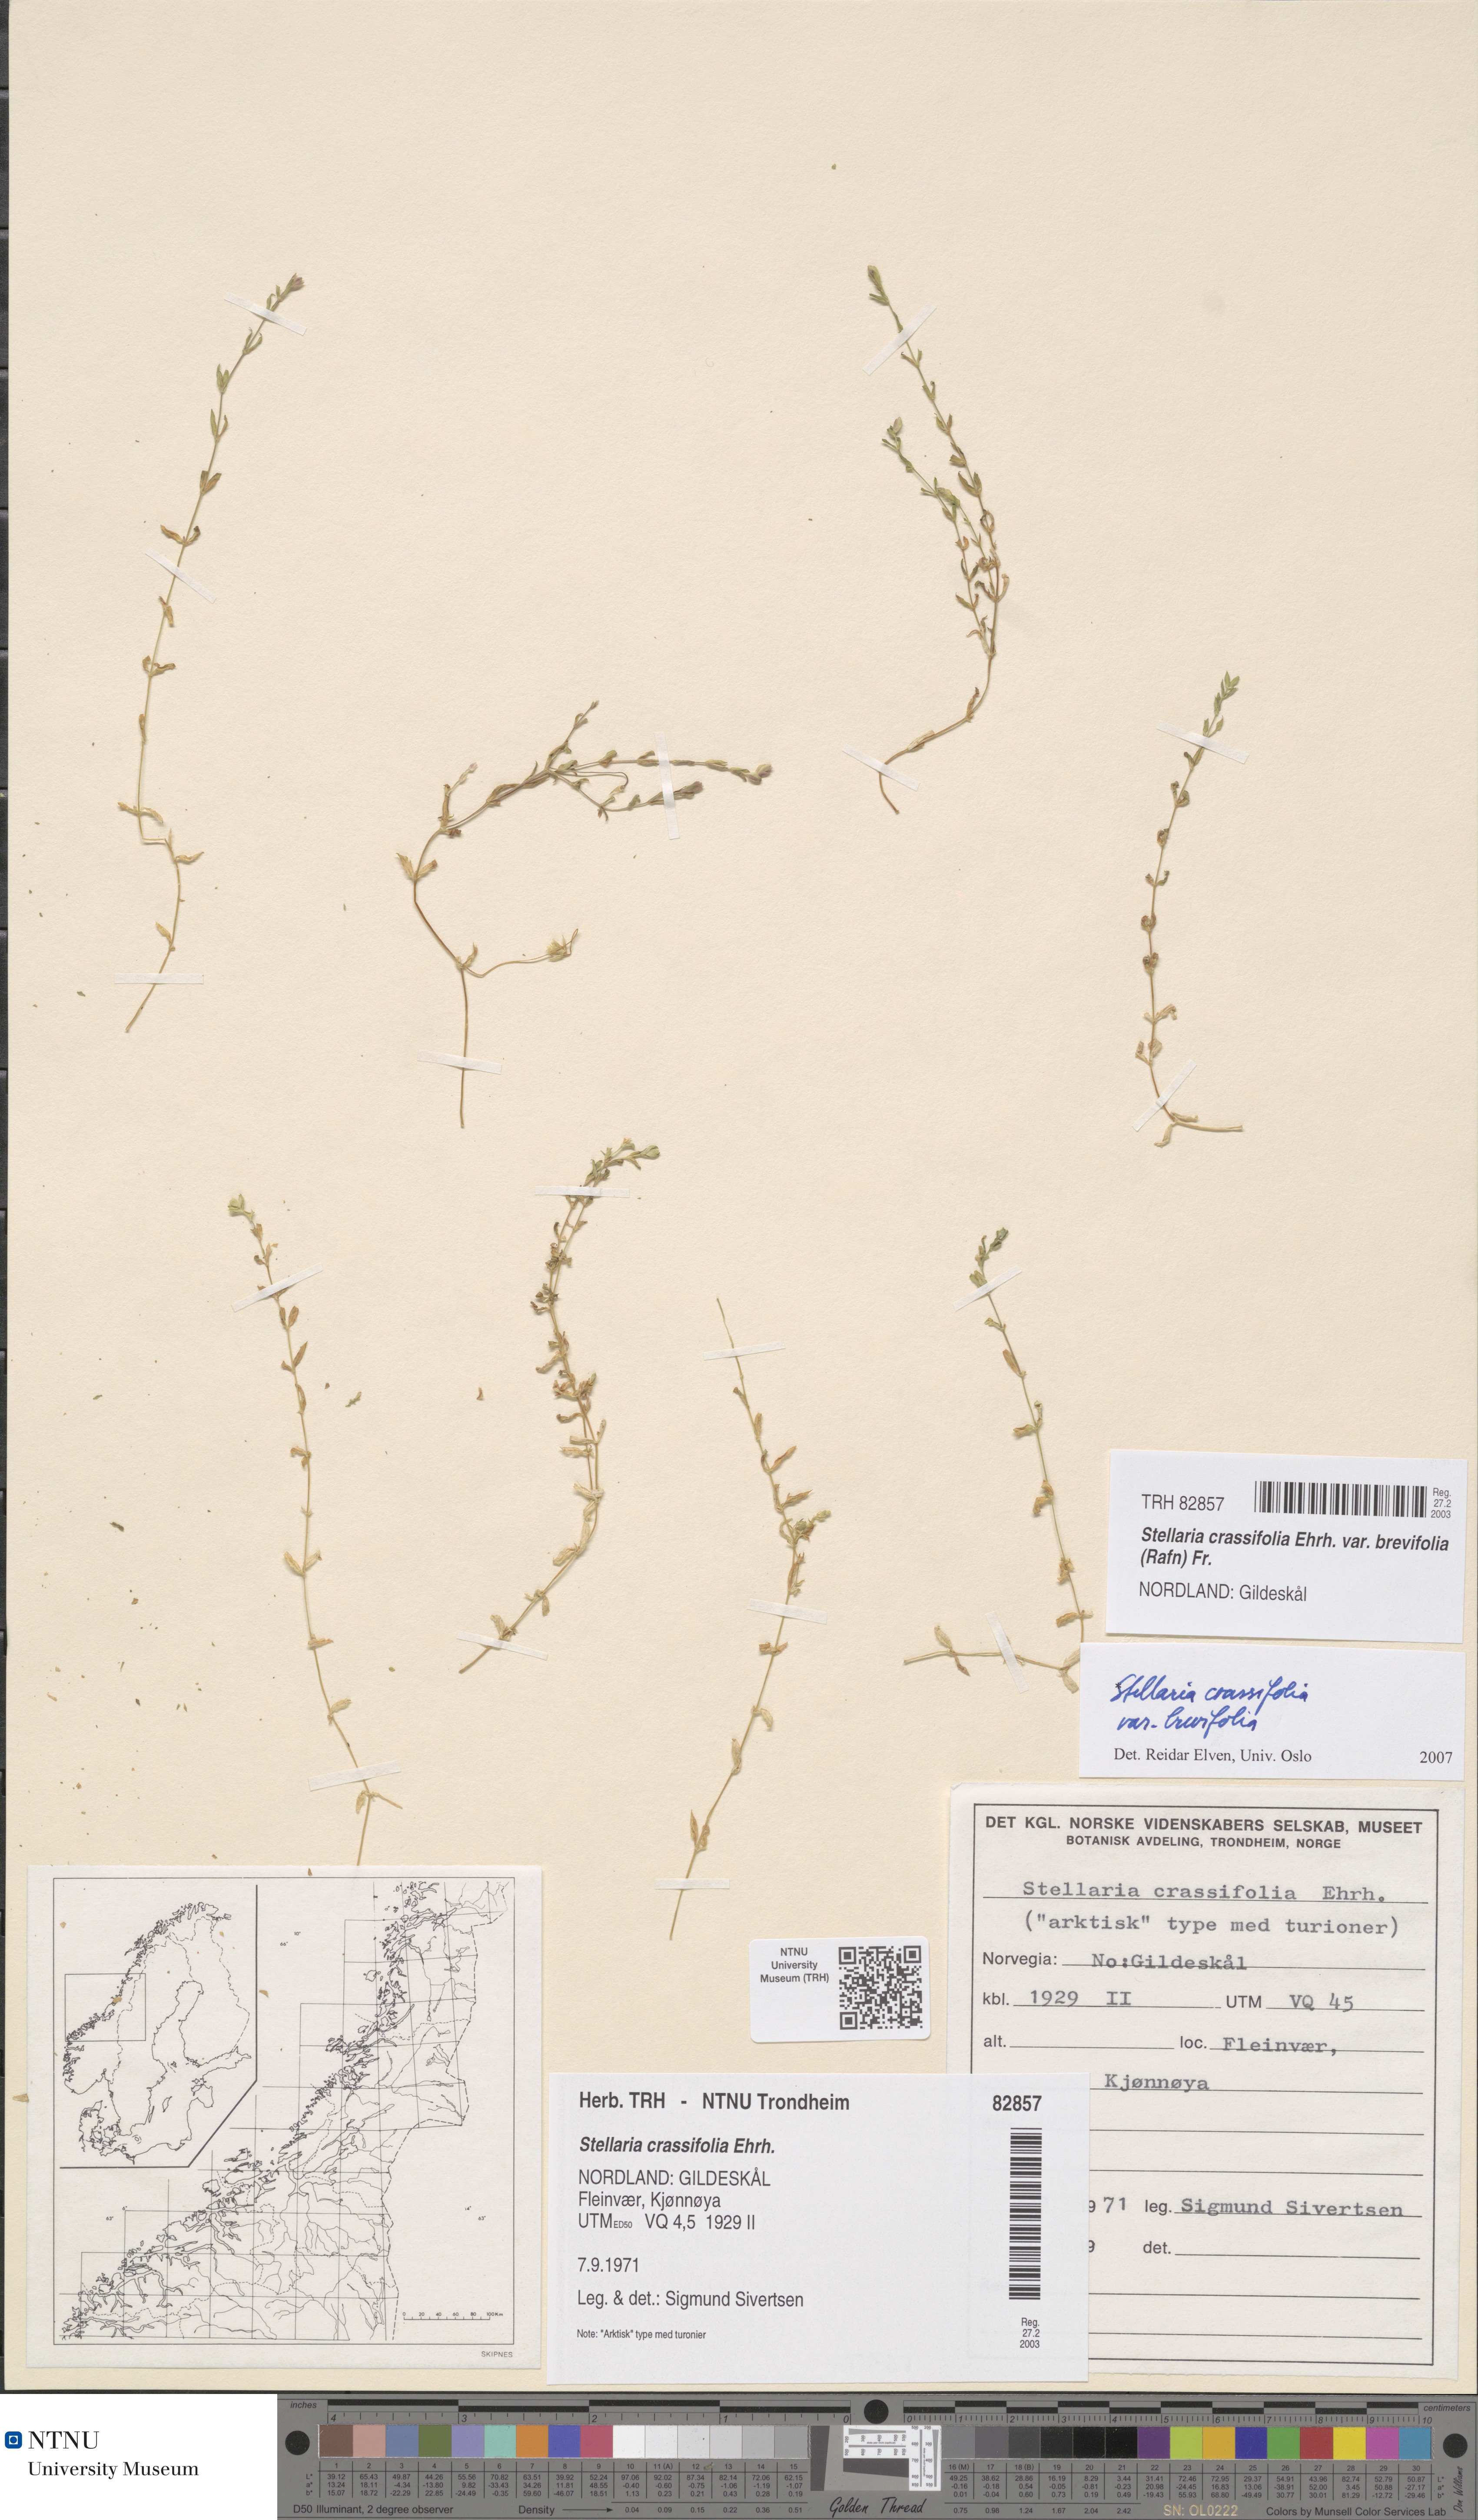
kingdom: Plantae
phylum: Tracheophyta
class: Magnoliopsida
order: Caryophyllales
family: Caryophyllaceae
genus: Stellaria
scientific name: Stellaria crassifolia
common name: Fleshy starwort
